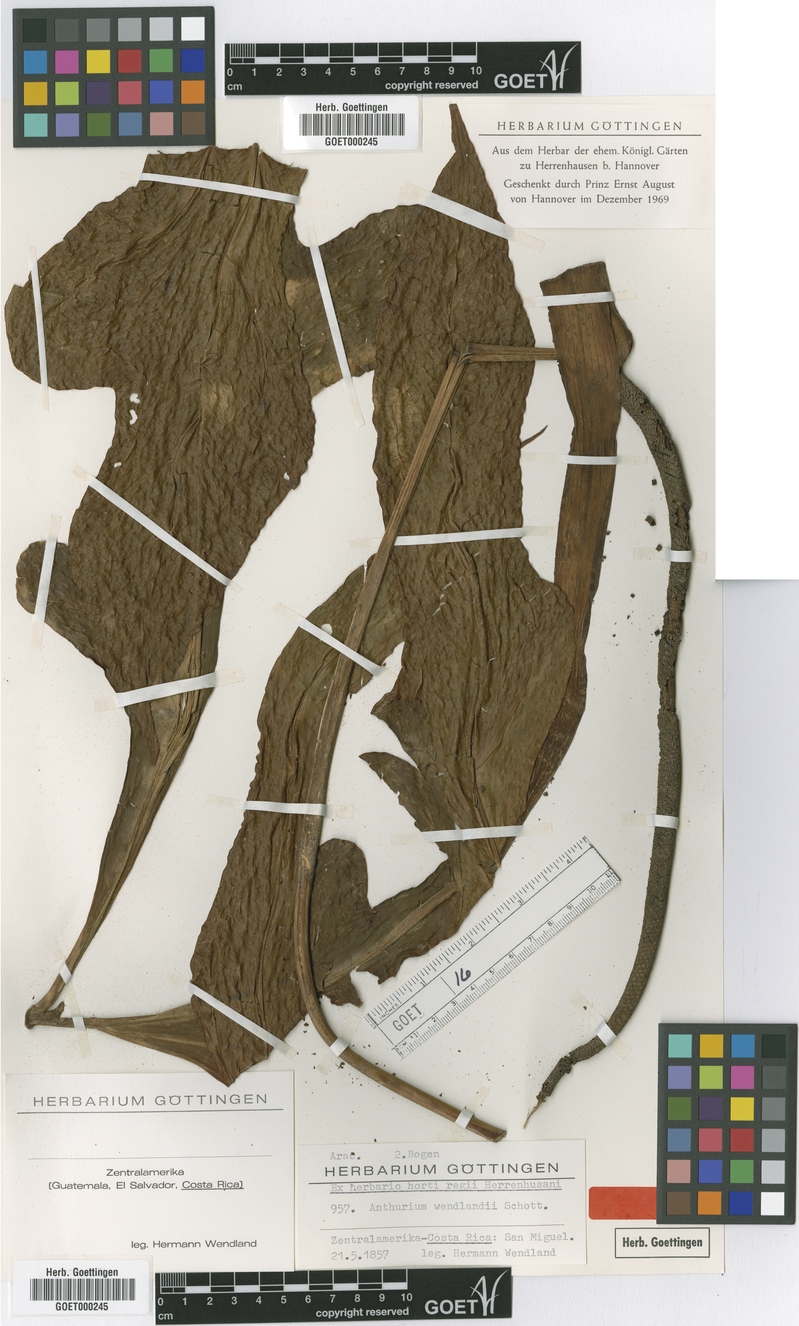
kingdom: Plantae
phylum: Tracheophyta
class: Liliopsida
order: Alismatales
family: Araceae
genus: Anthurium
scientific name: Anthurium clavigerum
